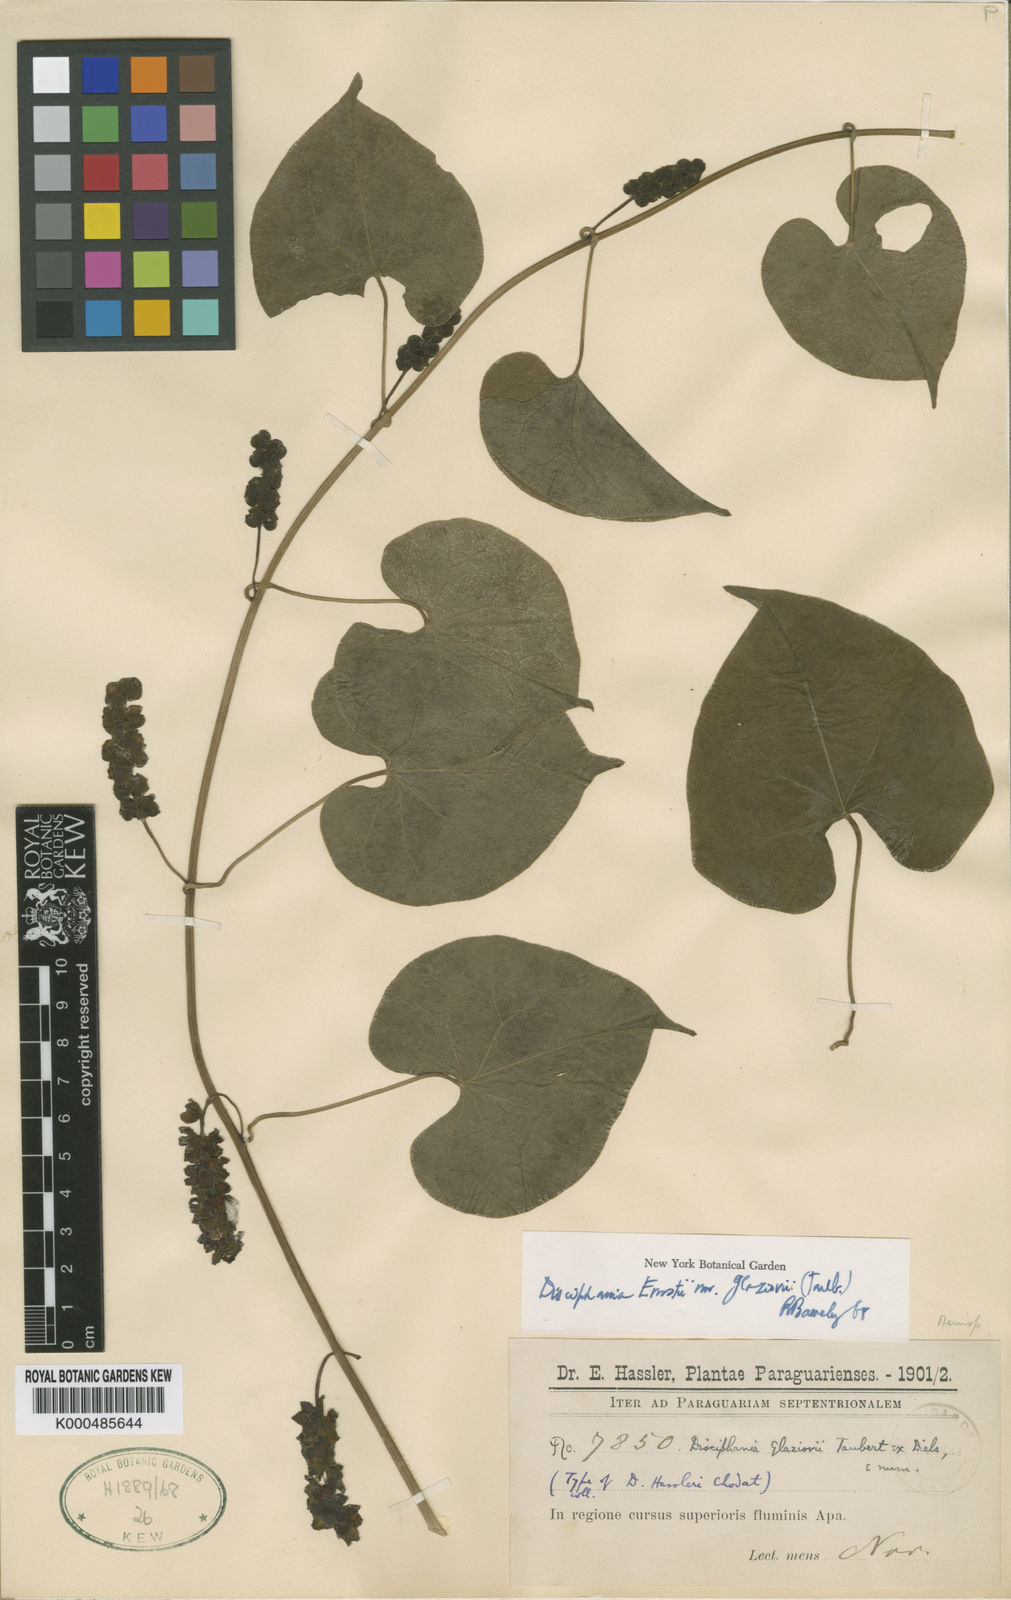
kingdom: Plantae
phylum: Tracheophyta
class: Magnoliopsida
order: Ranunculales
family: Menispermaceae
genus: Disciphania
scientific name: Disciphania ernstii
